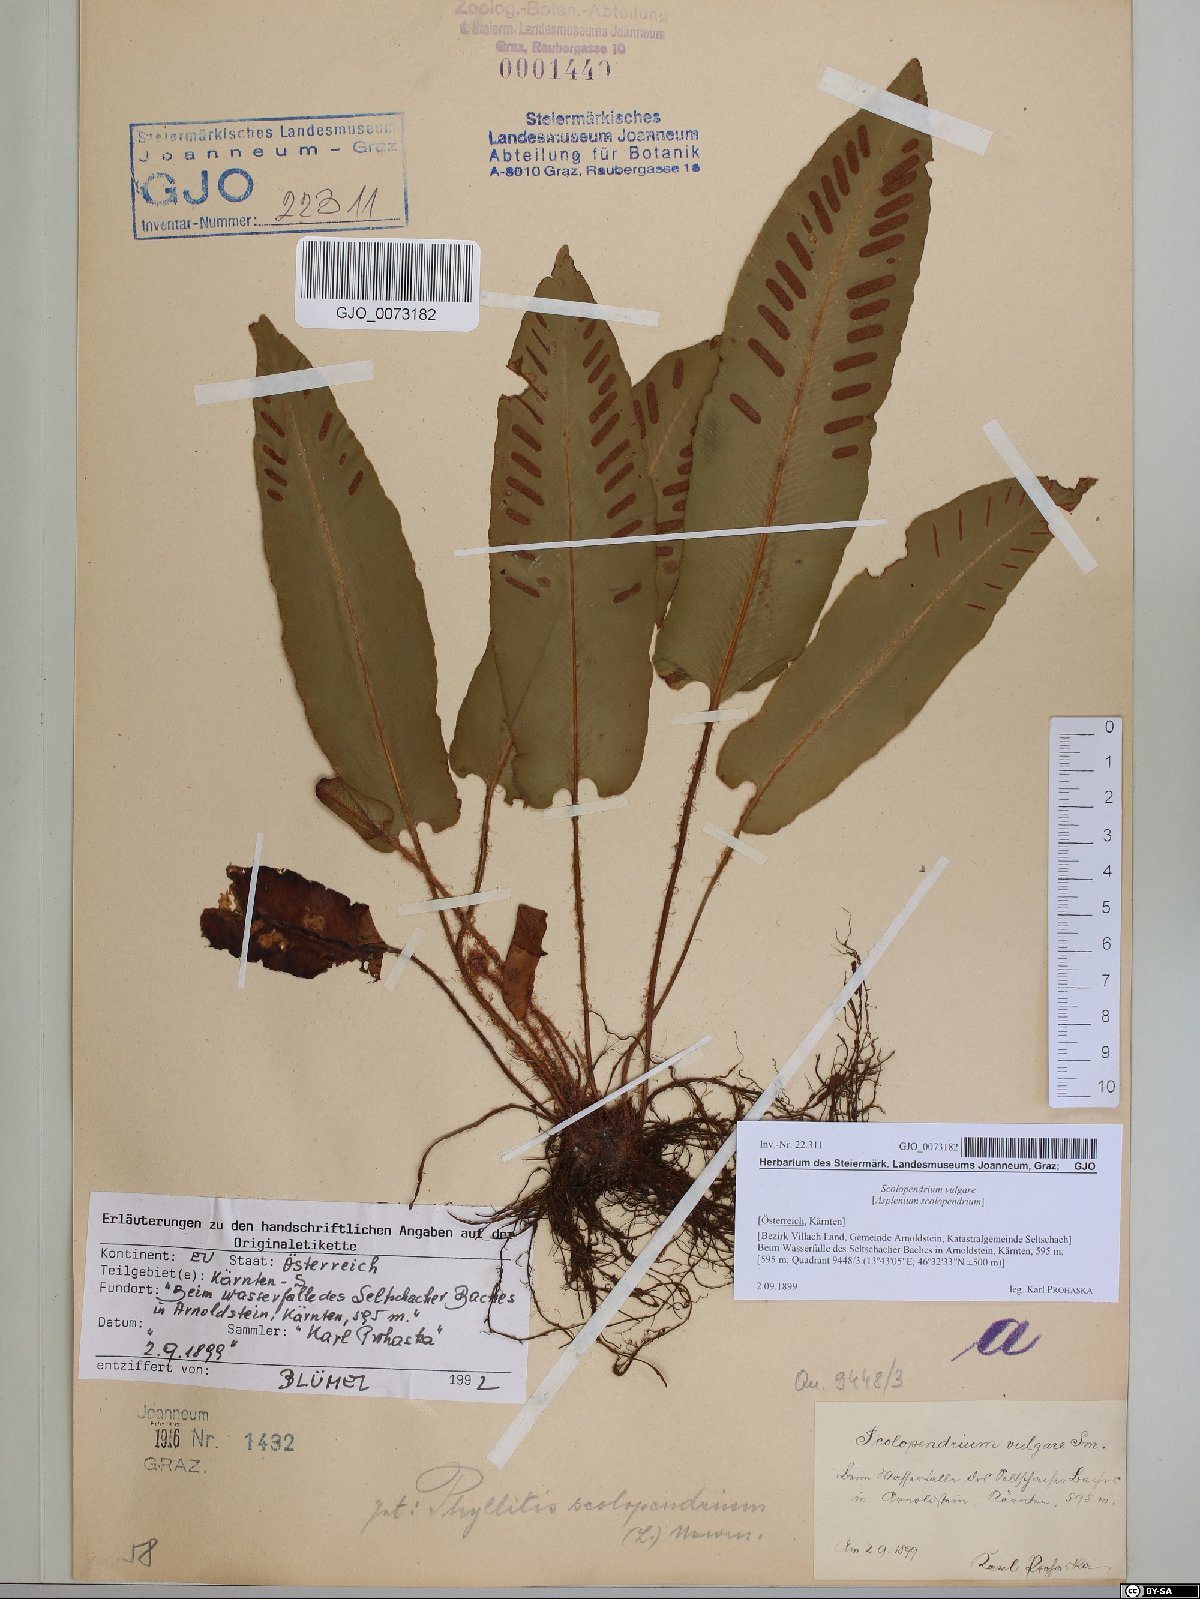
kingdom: Plantae
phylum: Tracheophyta
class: Polypodiopsida
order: Polypodiales
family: Aspleniaceae
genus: Asplenium
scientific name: Asplenium scolopendrium
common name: Hart's-tongue fern
